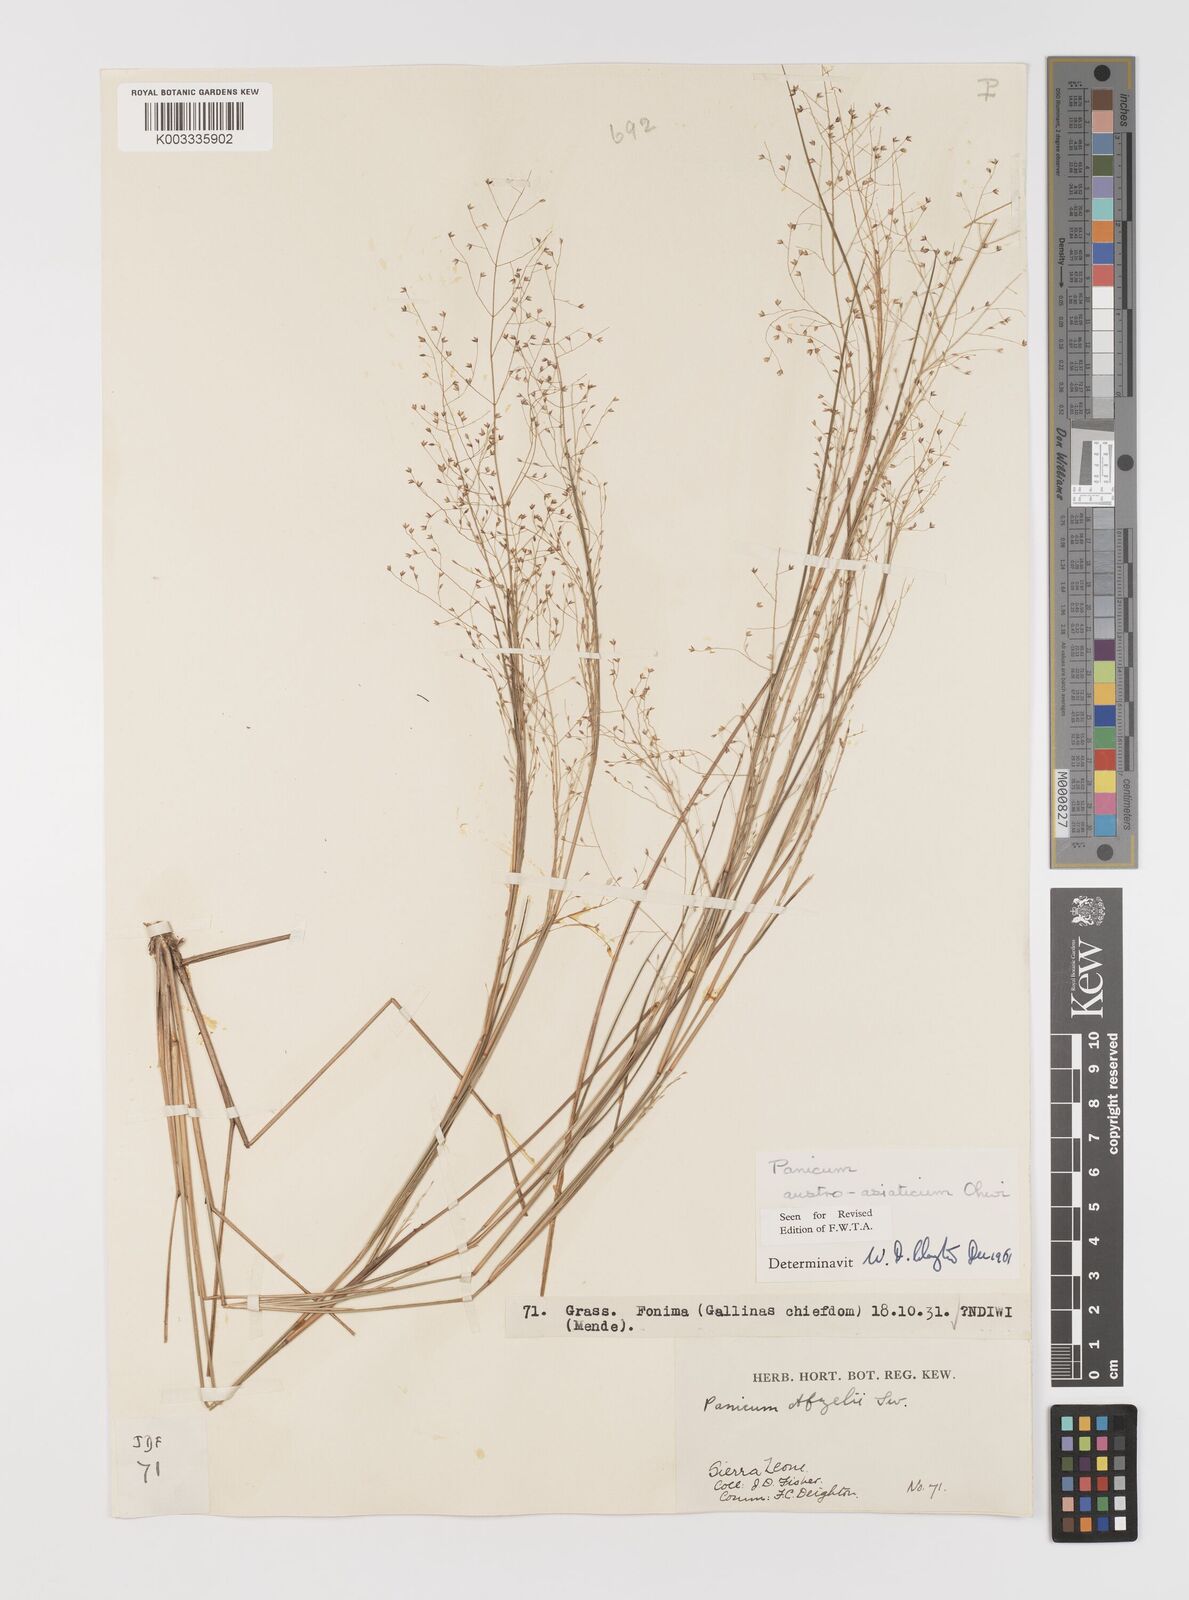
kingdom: Plantae
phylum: Tracheophyta
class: Liliopsida
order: Poales
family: Poaceae
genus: Panicum
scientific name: Panicum humile
